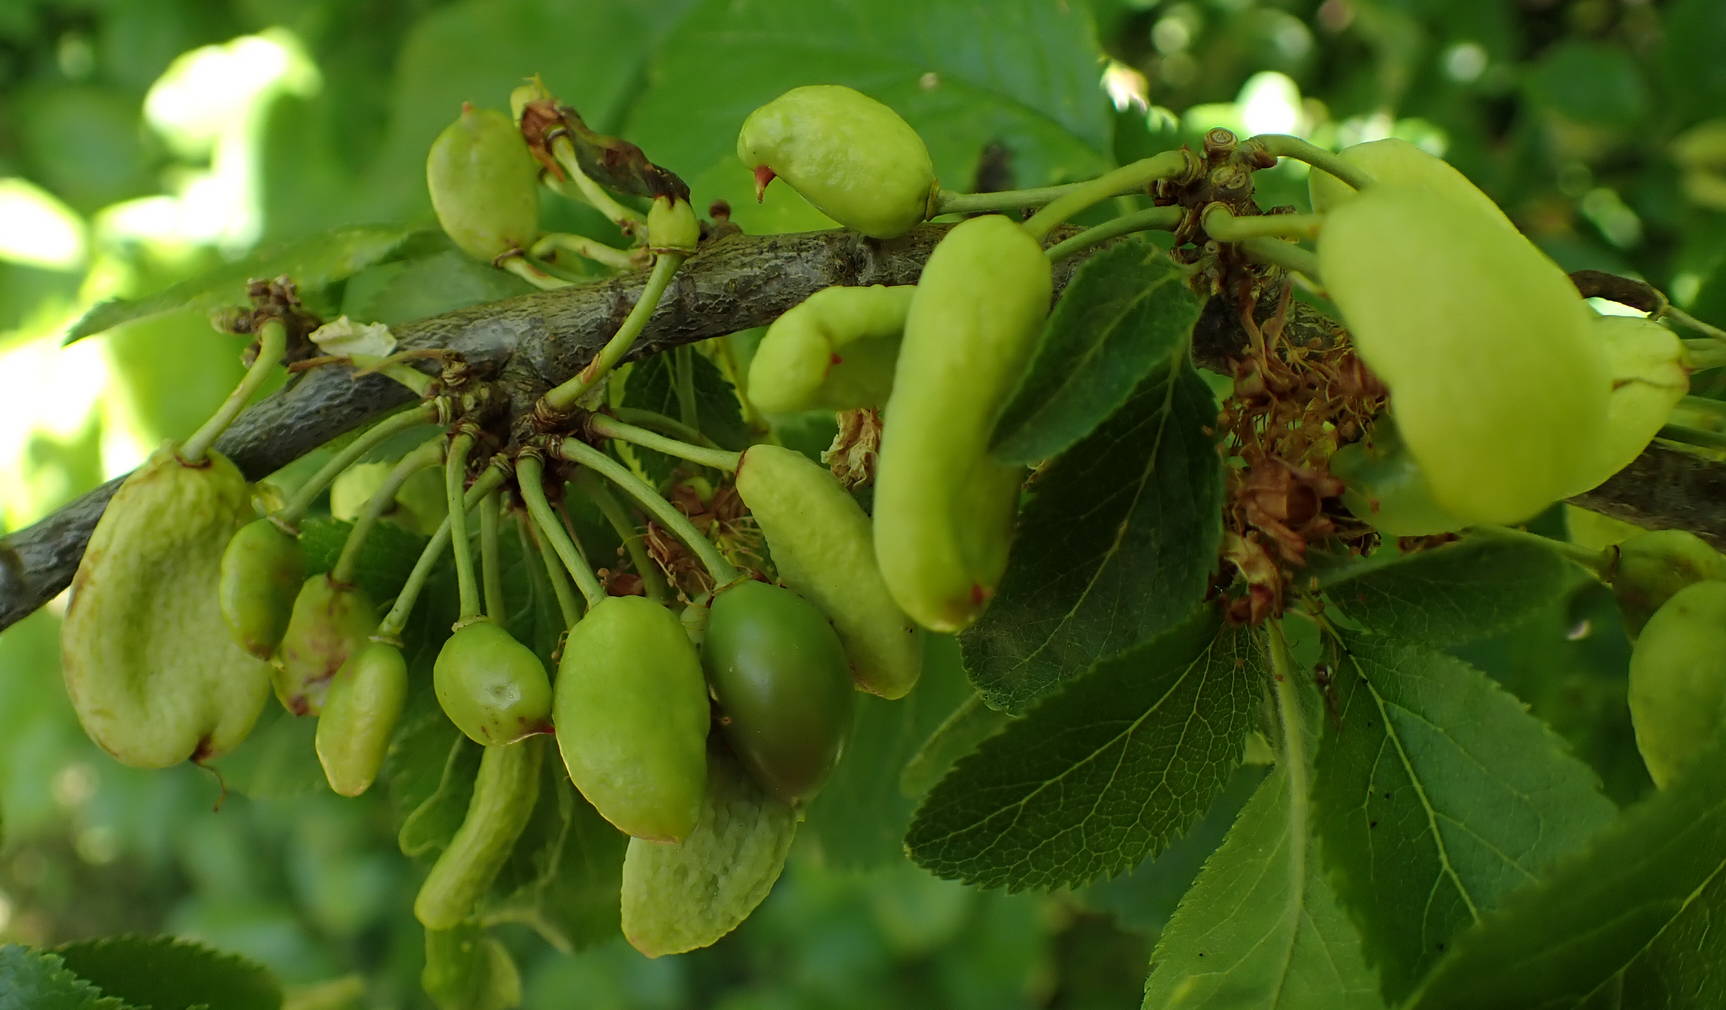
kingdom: Fungi
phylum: Ascomycota
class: Taphrinomycetes
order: Taphrinales
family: Taphrinaceae
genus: Taphrina
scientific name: Taphrina pruni
